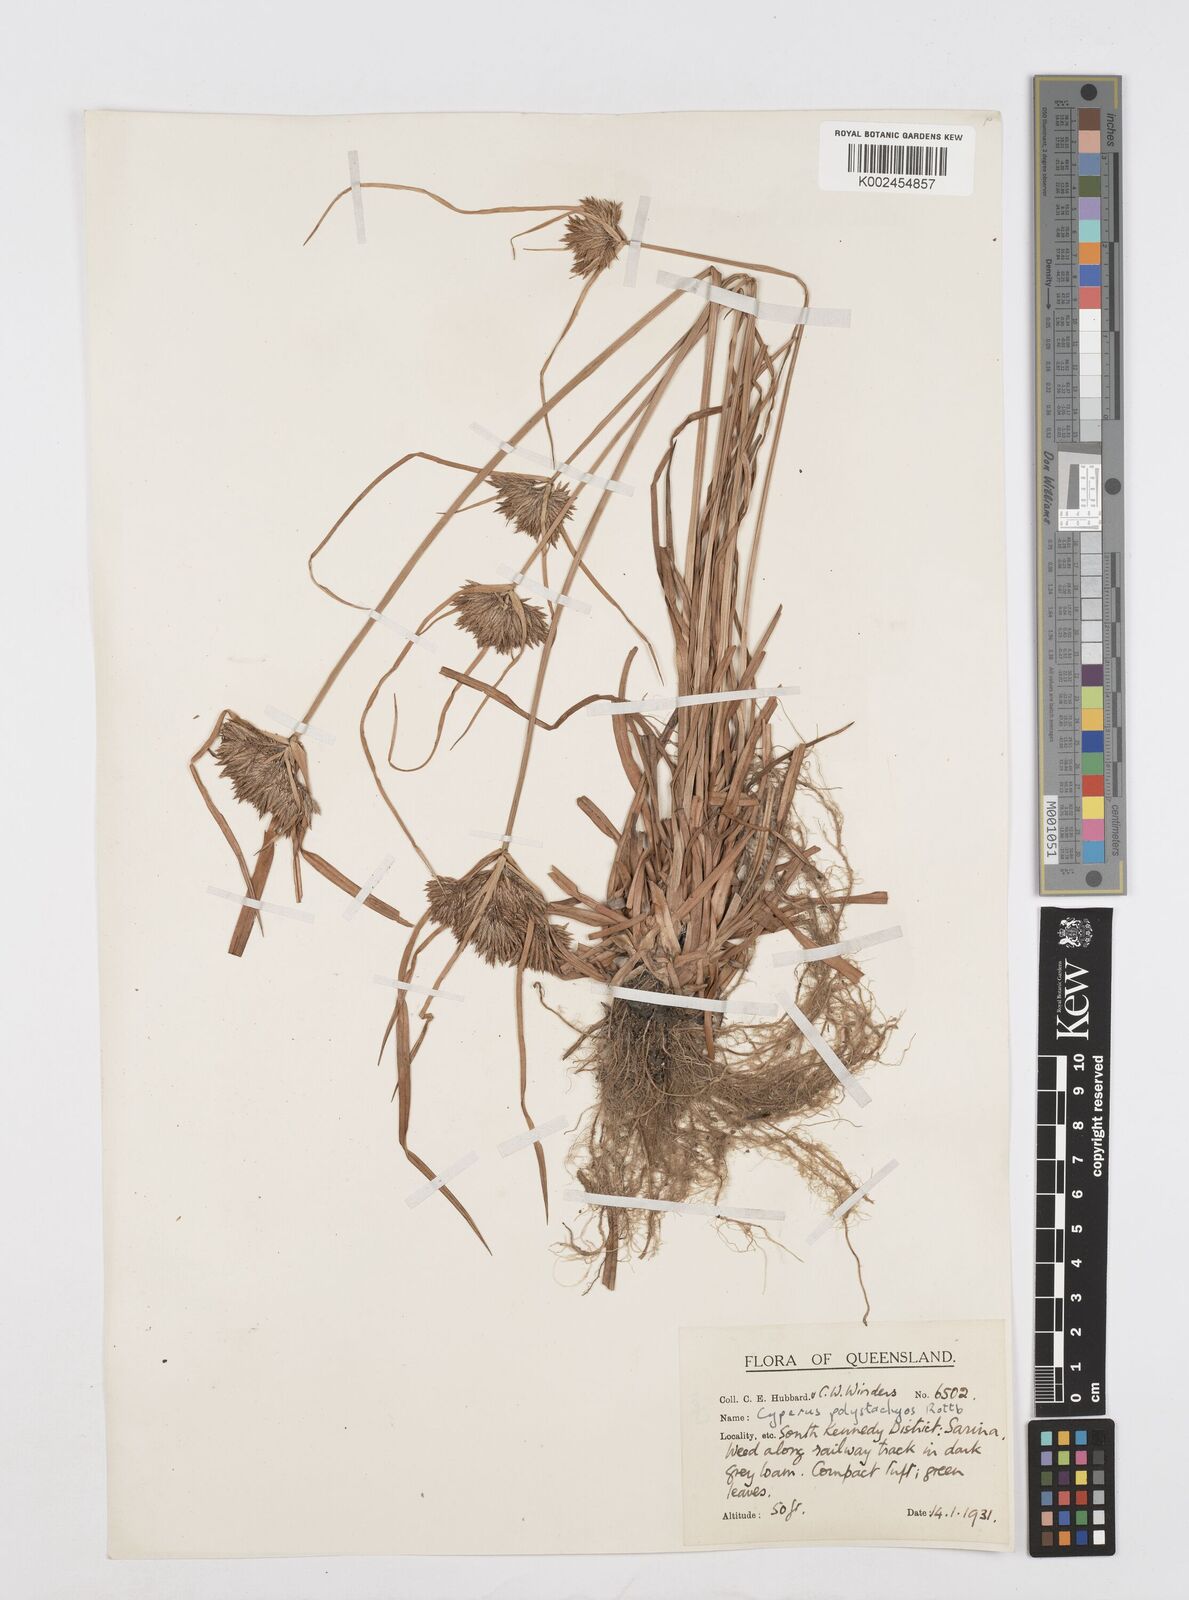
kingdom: Plantae
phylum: Tracheophyta
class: Liliopsida
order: Poales
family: Cyperaceae
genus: Cyperus
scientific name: Cyperus polystachyos
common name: Bunchy flat sedge
